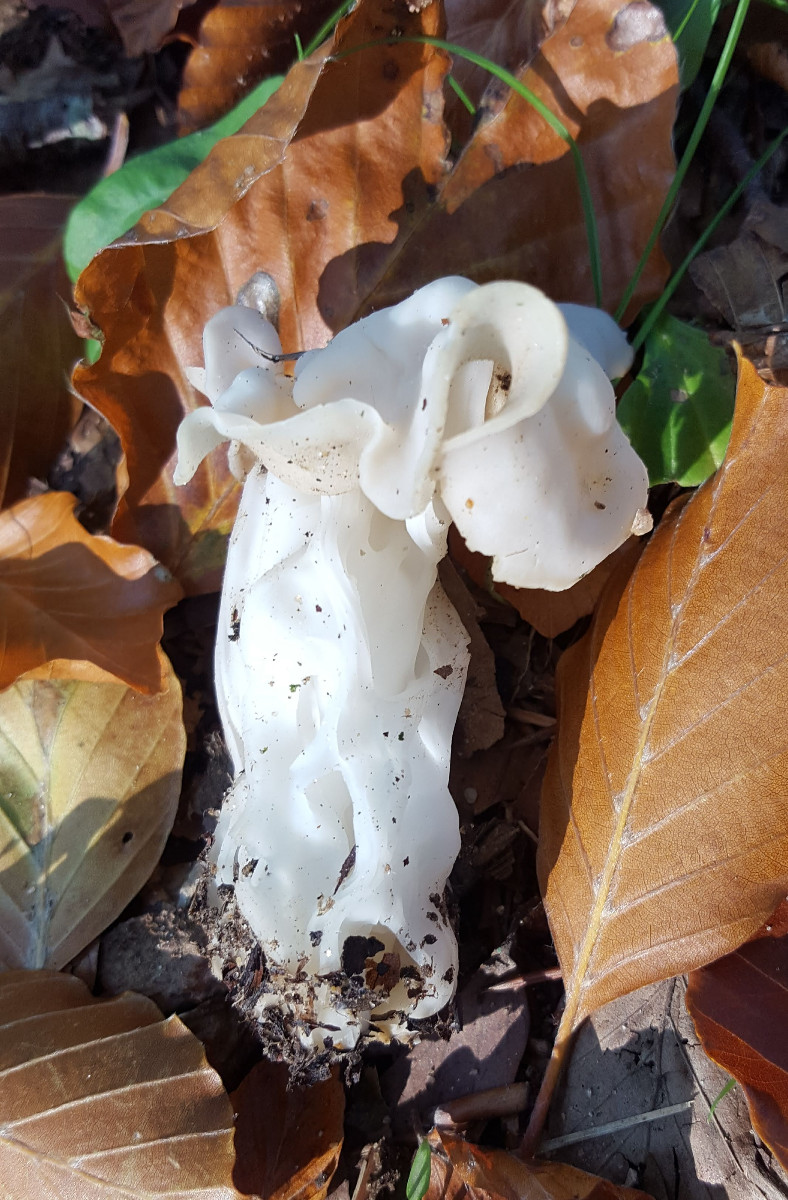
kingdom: Fungi
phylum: Ascomycota
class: Pezizomycetes
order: Pezizales
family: Helvellaceae
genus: Helvella
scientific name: Helvella crispa
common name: kruset foldhat
